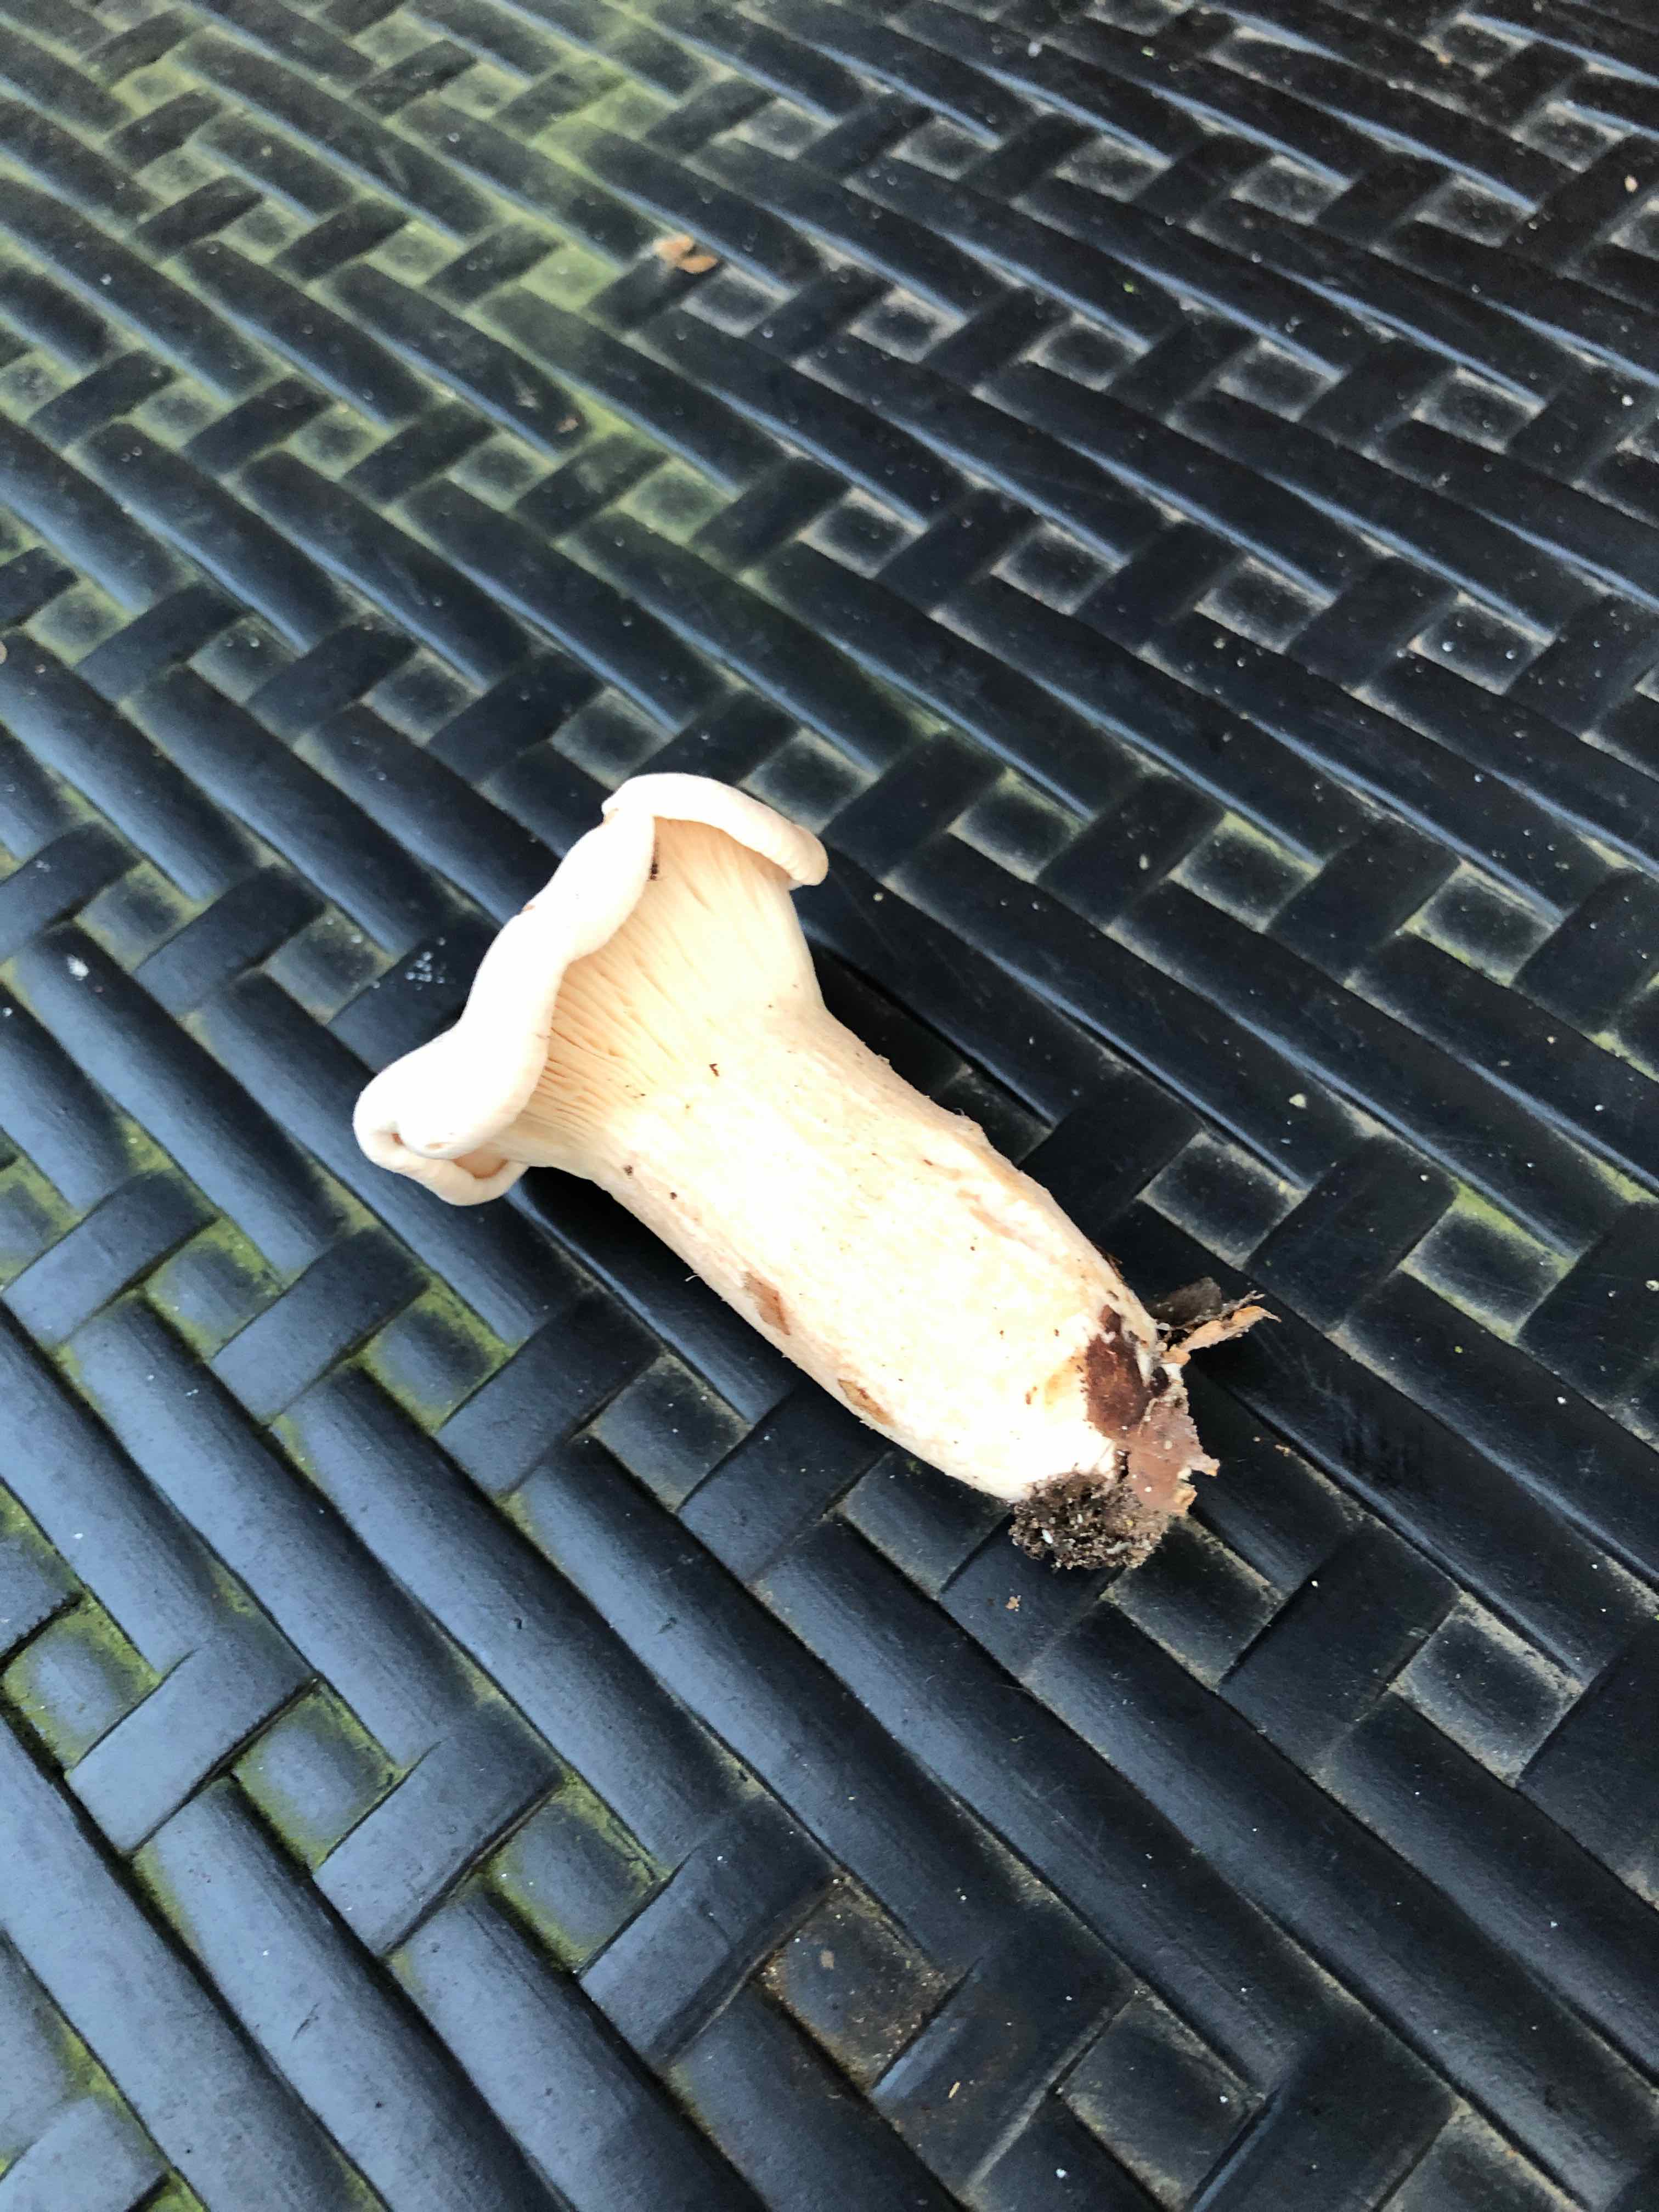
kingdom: Plantae
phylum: Bryophyta
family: Agaricomycetidae
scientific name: Agaricomycetidae
